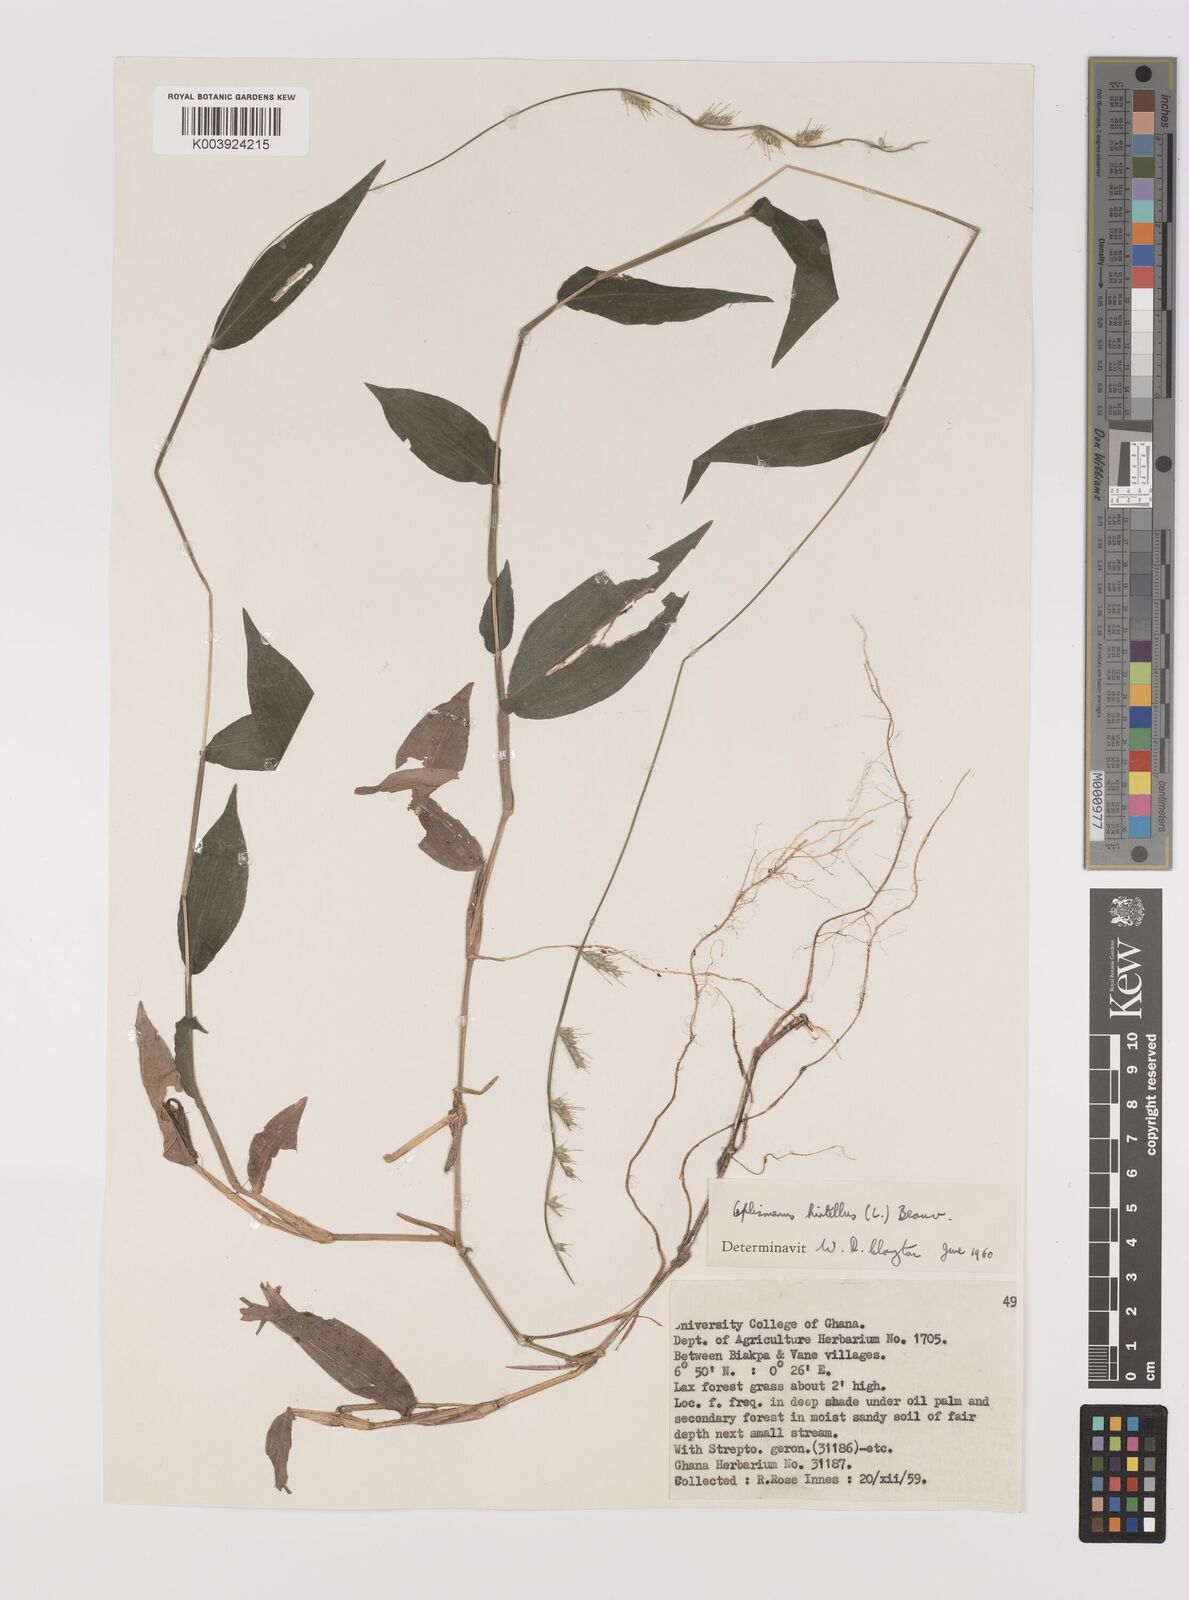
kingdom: Plantae
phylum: Tracheophyta
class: Liliopsida
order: Poales
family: Poaceae
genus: Oplismenus
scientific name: Oplismenus hirtellus
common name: Basketgrass
